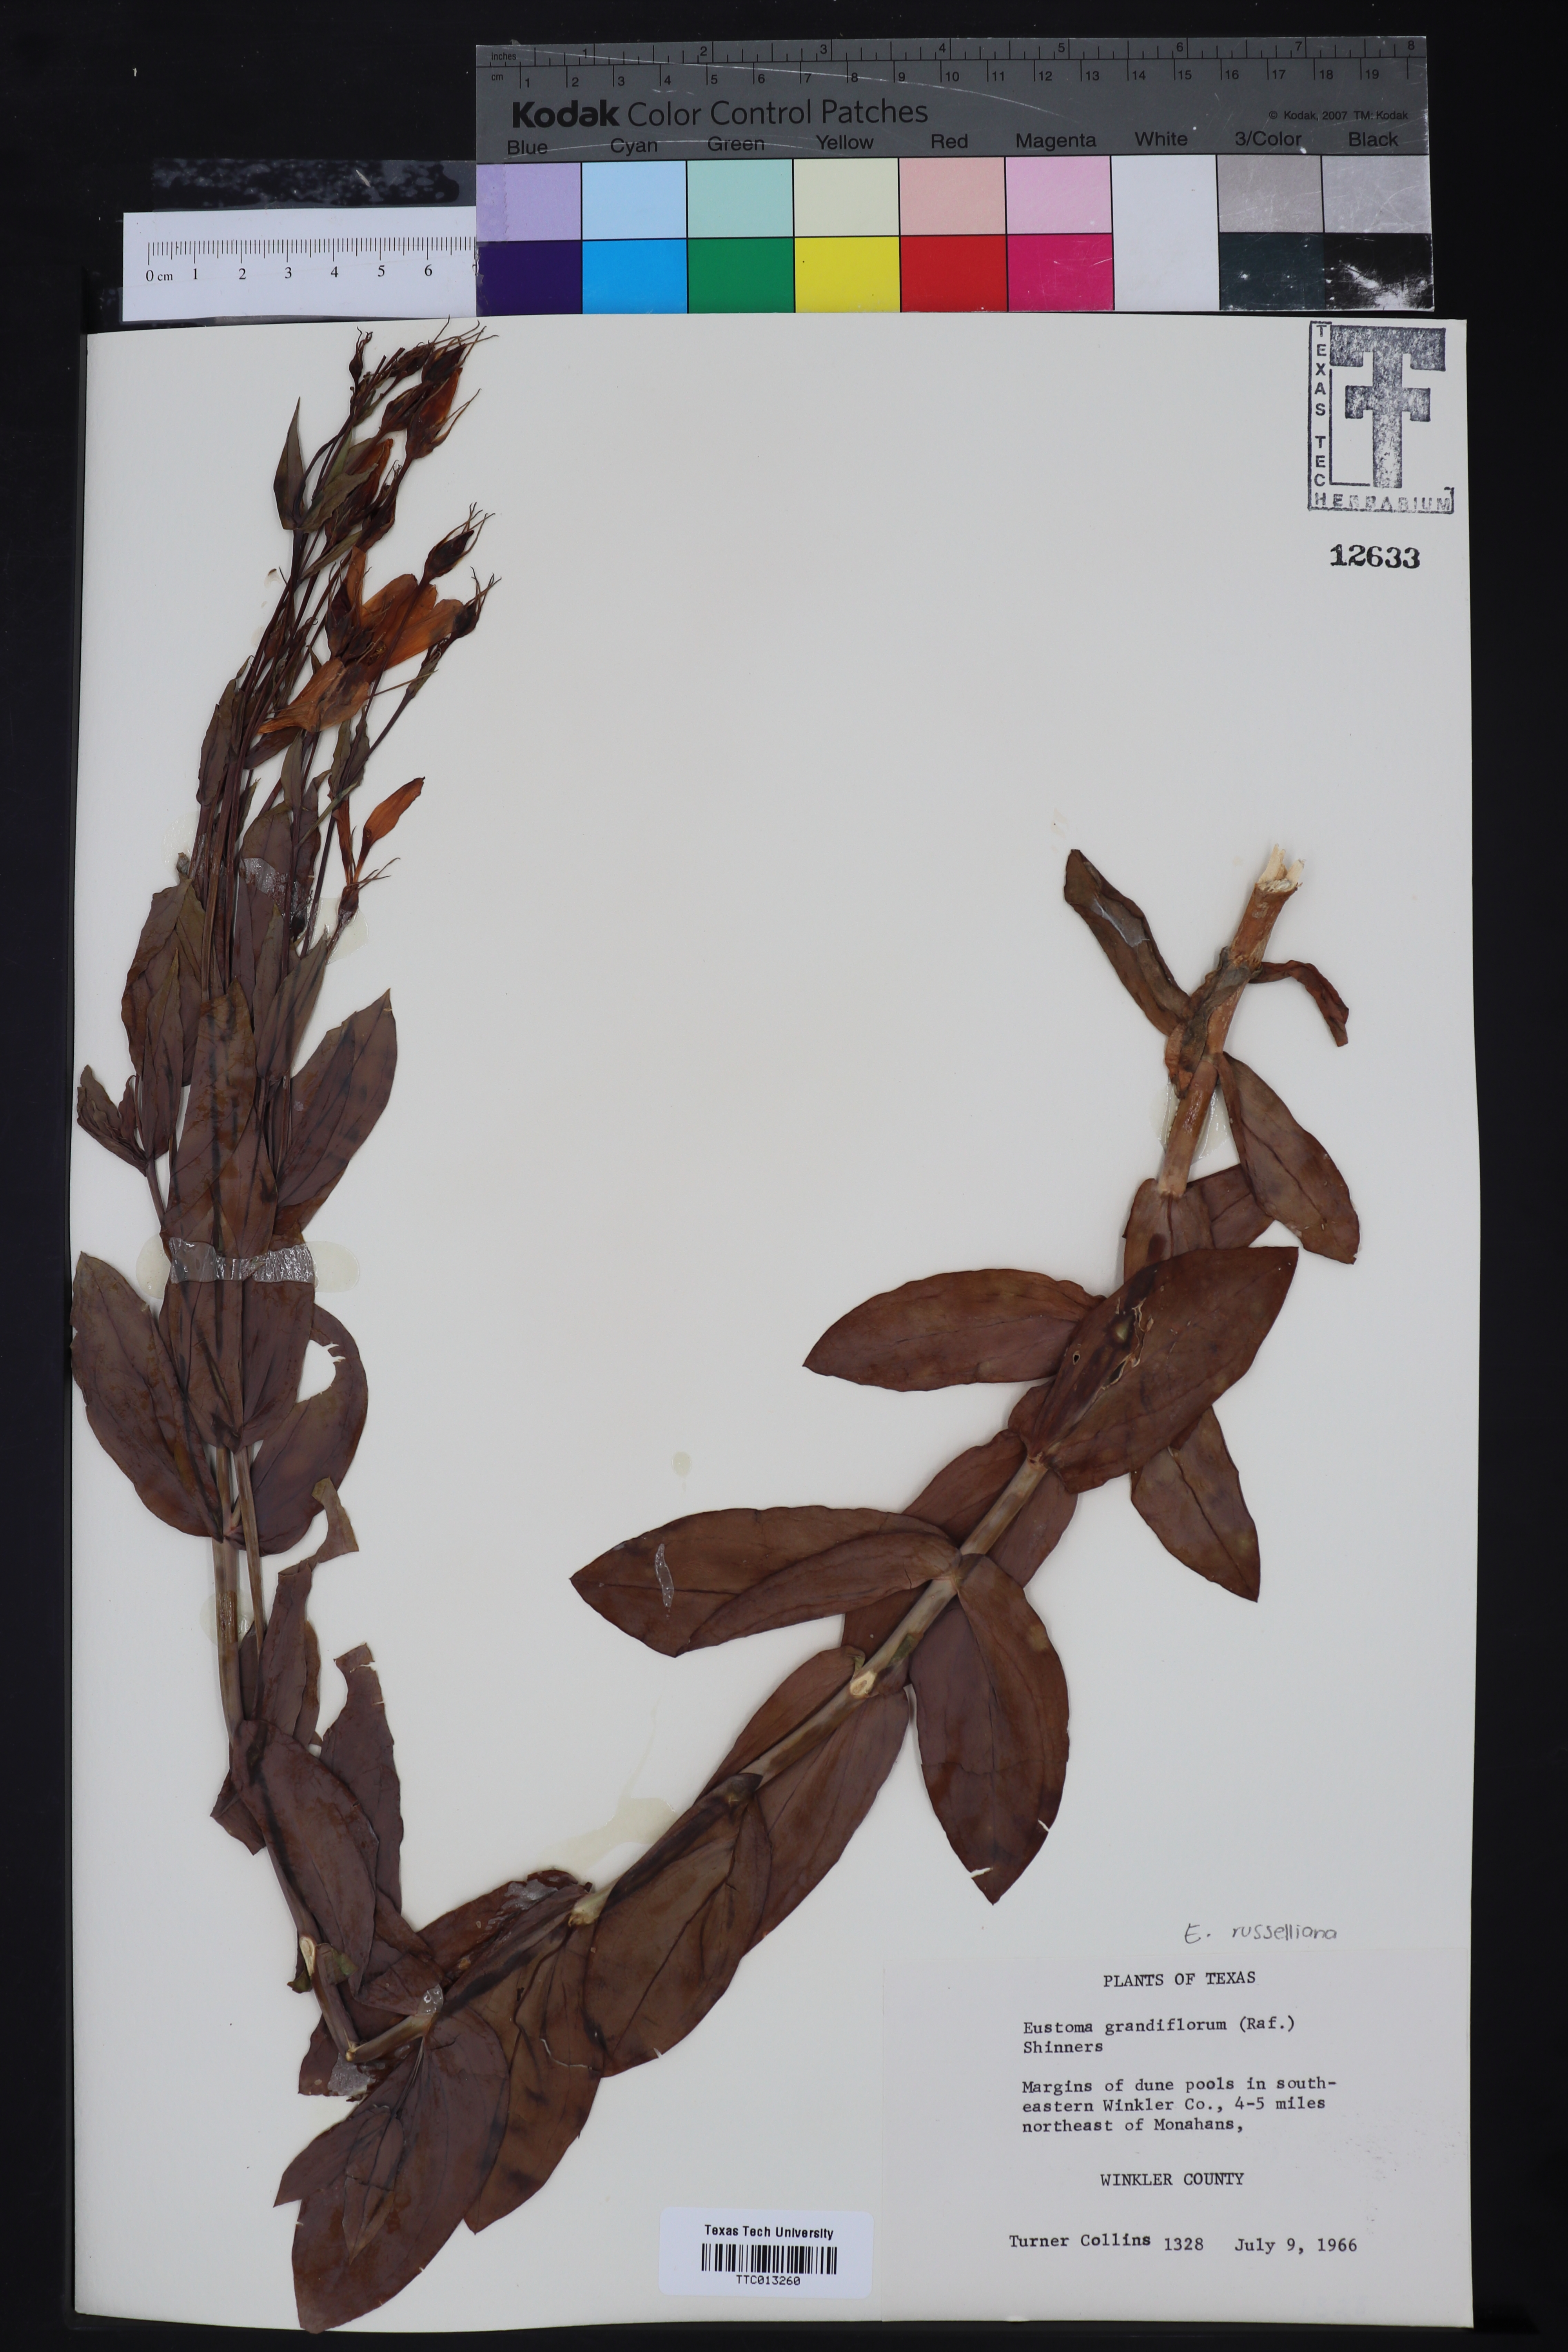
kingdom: Plantae
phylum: Tracheophyta
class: Magnoliopsida
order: Gentianales
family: Gentianaceae
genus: Eustoma
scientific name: Eustoma russellianum
